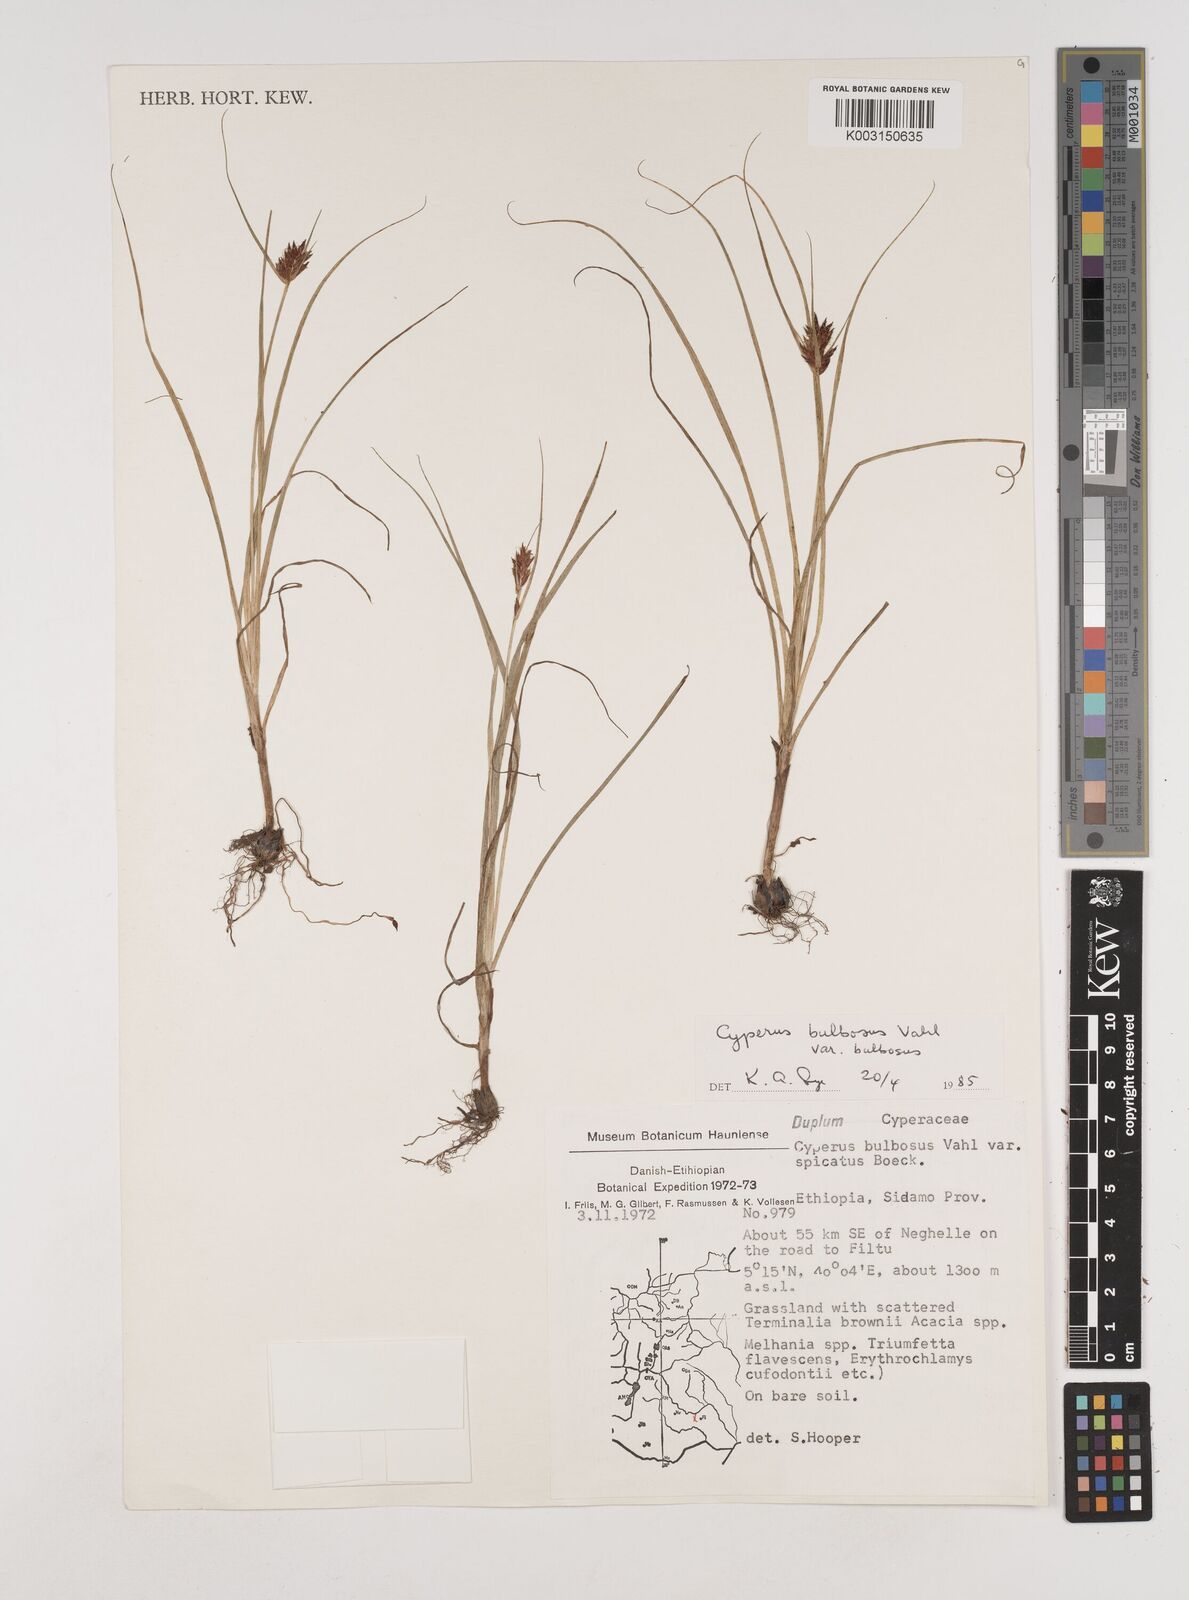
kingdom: Plantae
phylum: Tracheophyta
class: Liliopsida
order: Poales
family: Cyperaceae
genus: Cyperus
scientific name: Cyperus bulbosus
